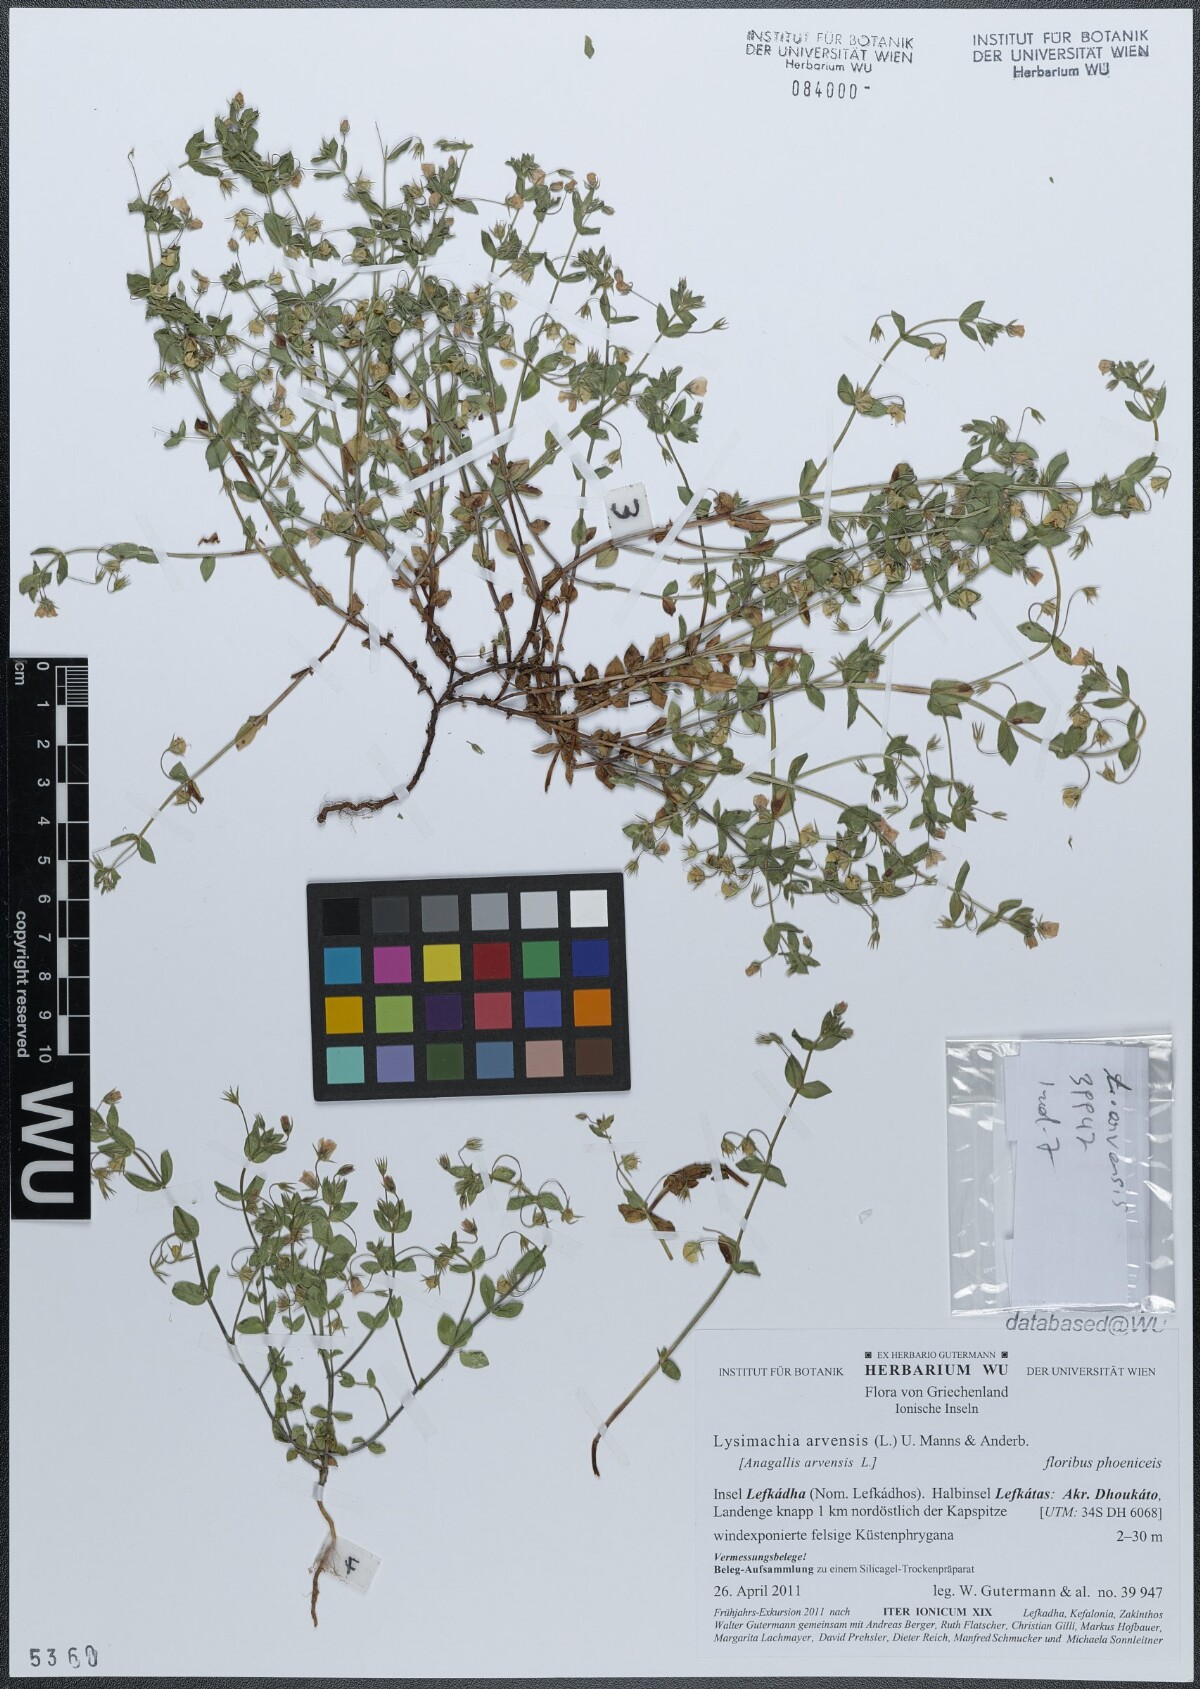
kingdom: Plantae
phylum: Tracheophyta
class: Magnoliopsida
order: Ericales
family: Primulaceae
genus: Lysimachia
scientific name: Lysimachia arvensis
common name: Scarlet pimpernel
